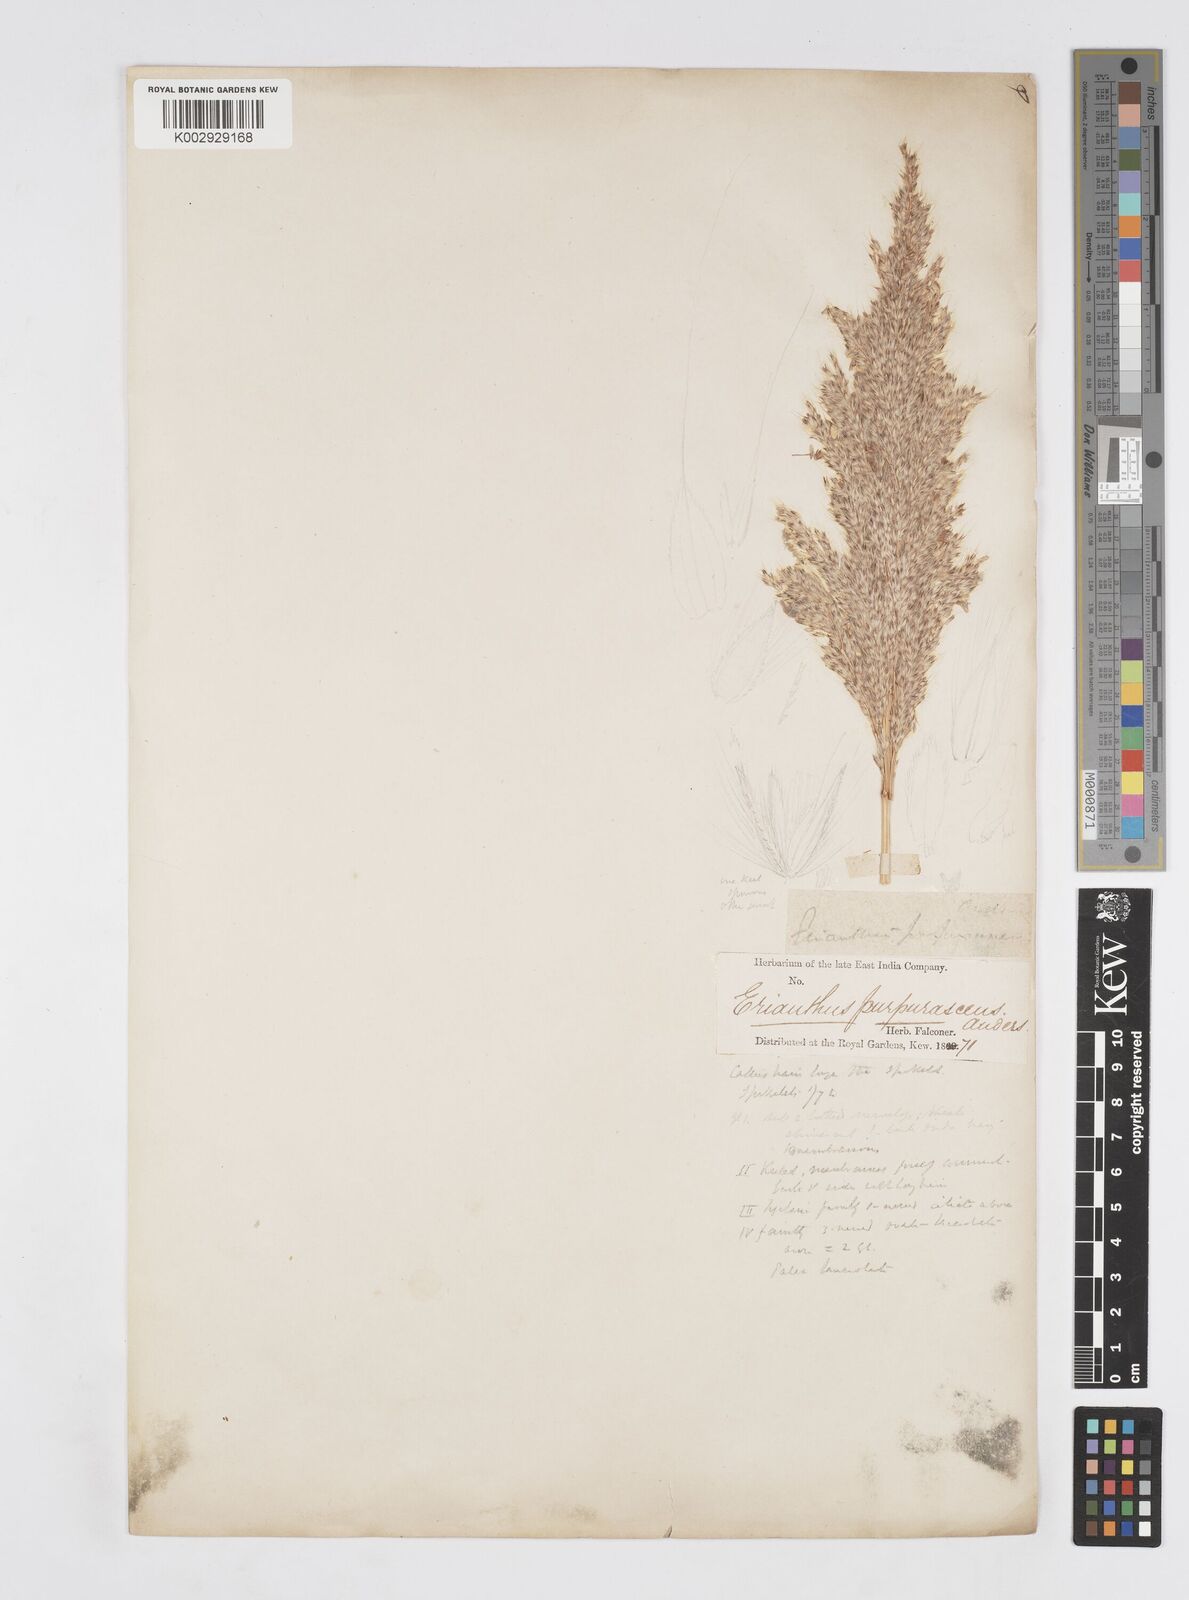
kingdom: Plantae
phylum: Tracheophyta
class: Liliopsida
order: Poales
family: Poaceae
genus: Tripidium
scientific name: Tripidium ravennae
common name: Ravenna grass
